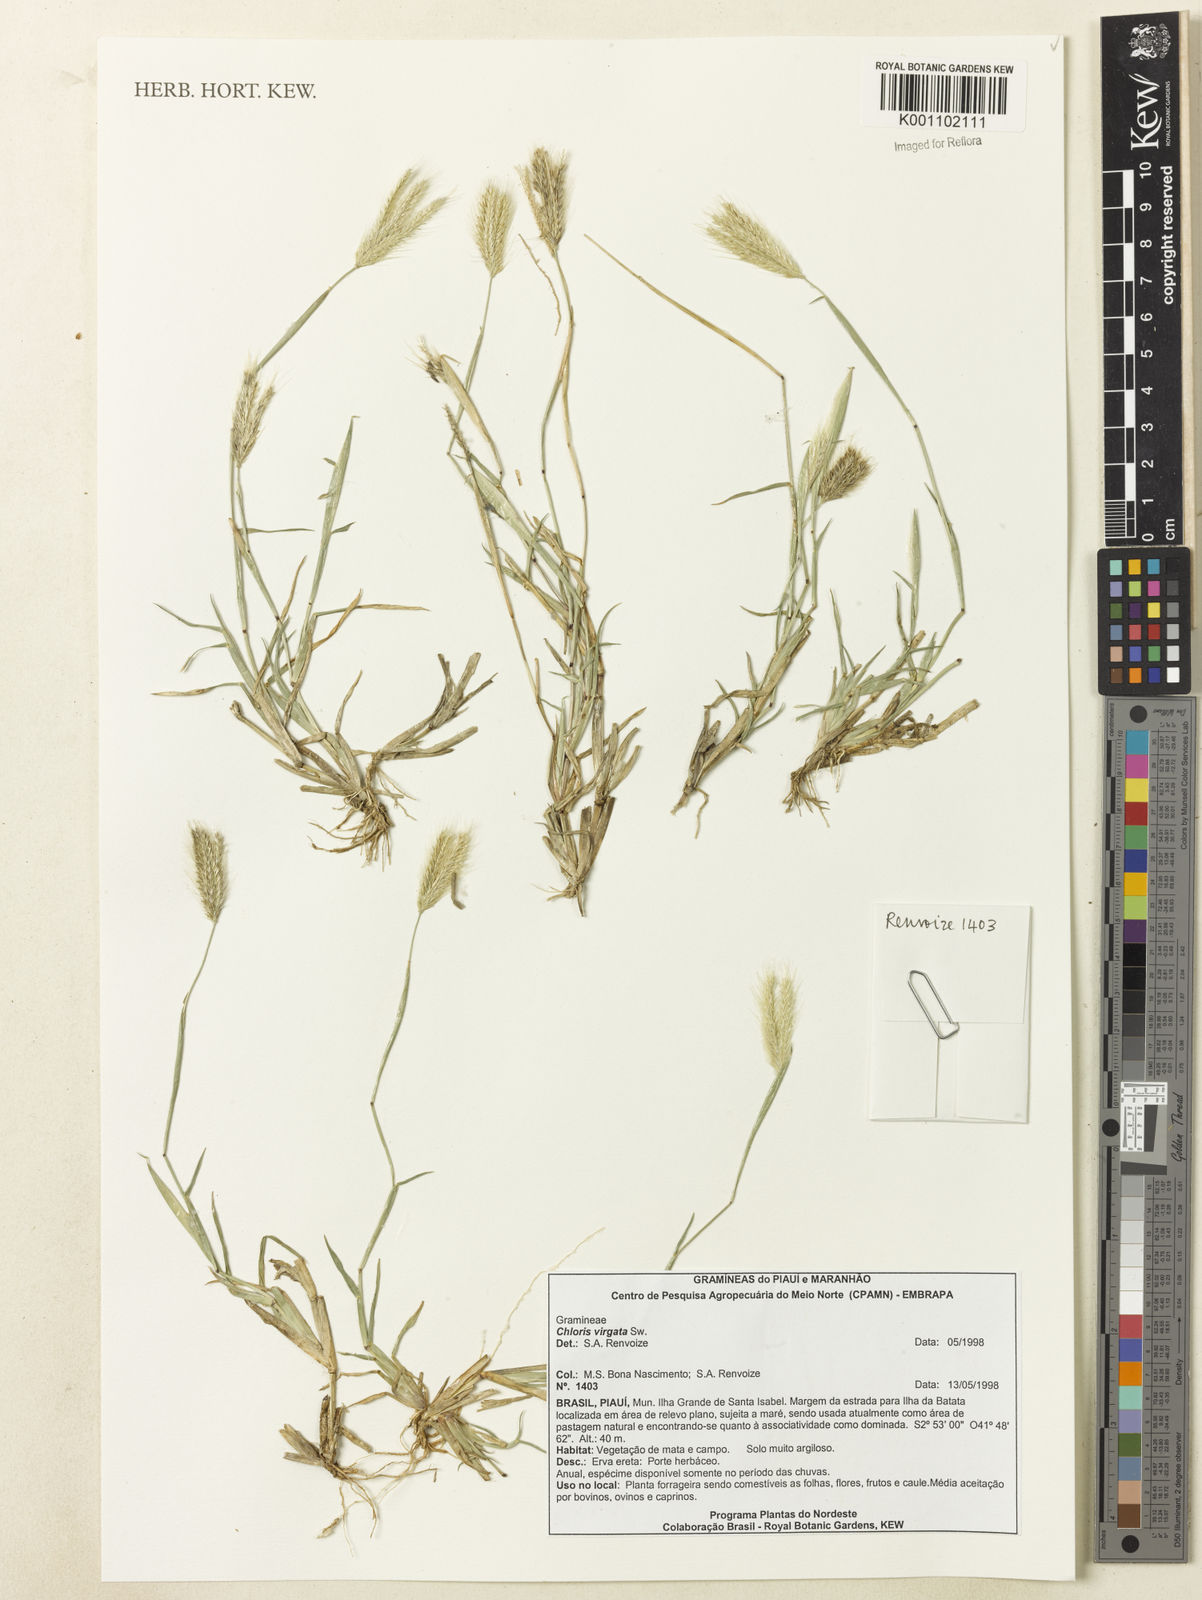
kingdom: Plantae
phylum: Tracheophyta
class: Liliopsida
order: Poales
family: Poaceae
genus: Chloris
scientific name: Chloris gayana
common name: Rhodes grass
